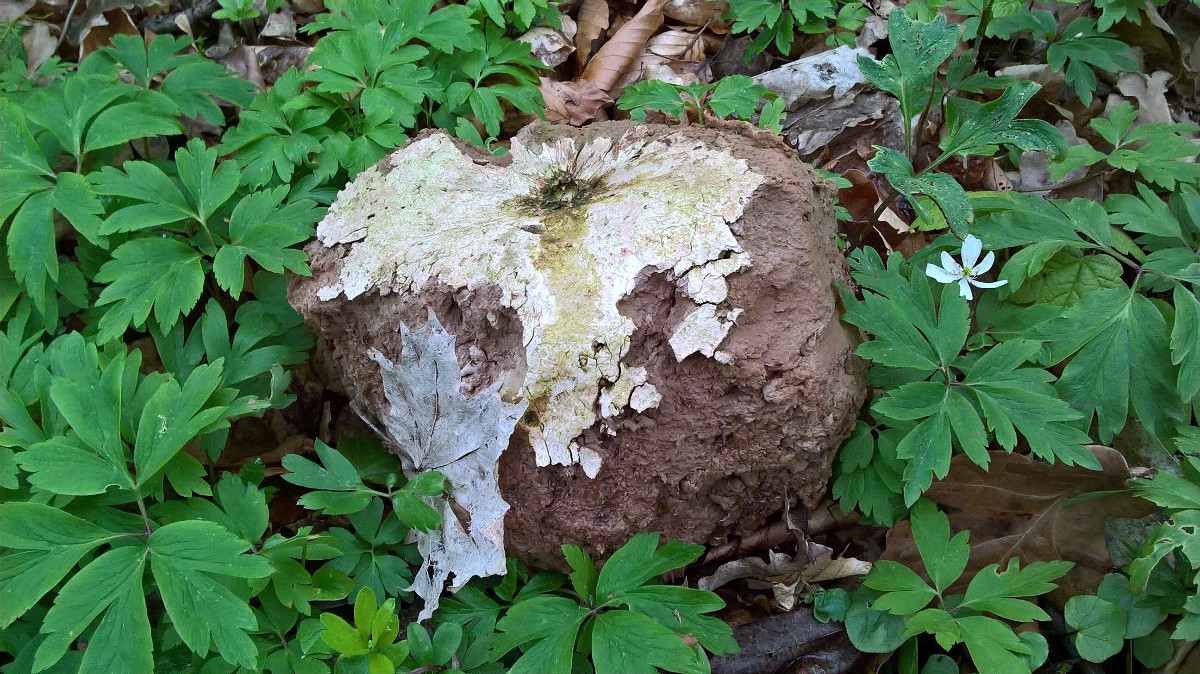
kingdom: Fungi
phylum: Basidiomycota
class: Agaricomycetes
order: Agaricales
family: Lycoperdaceae
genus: Calvatia
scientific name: Calvatia gigantea
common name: kæmpestøvbold
